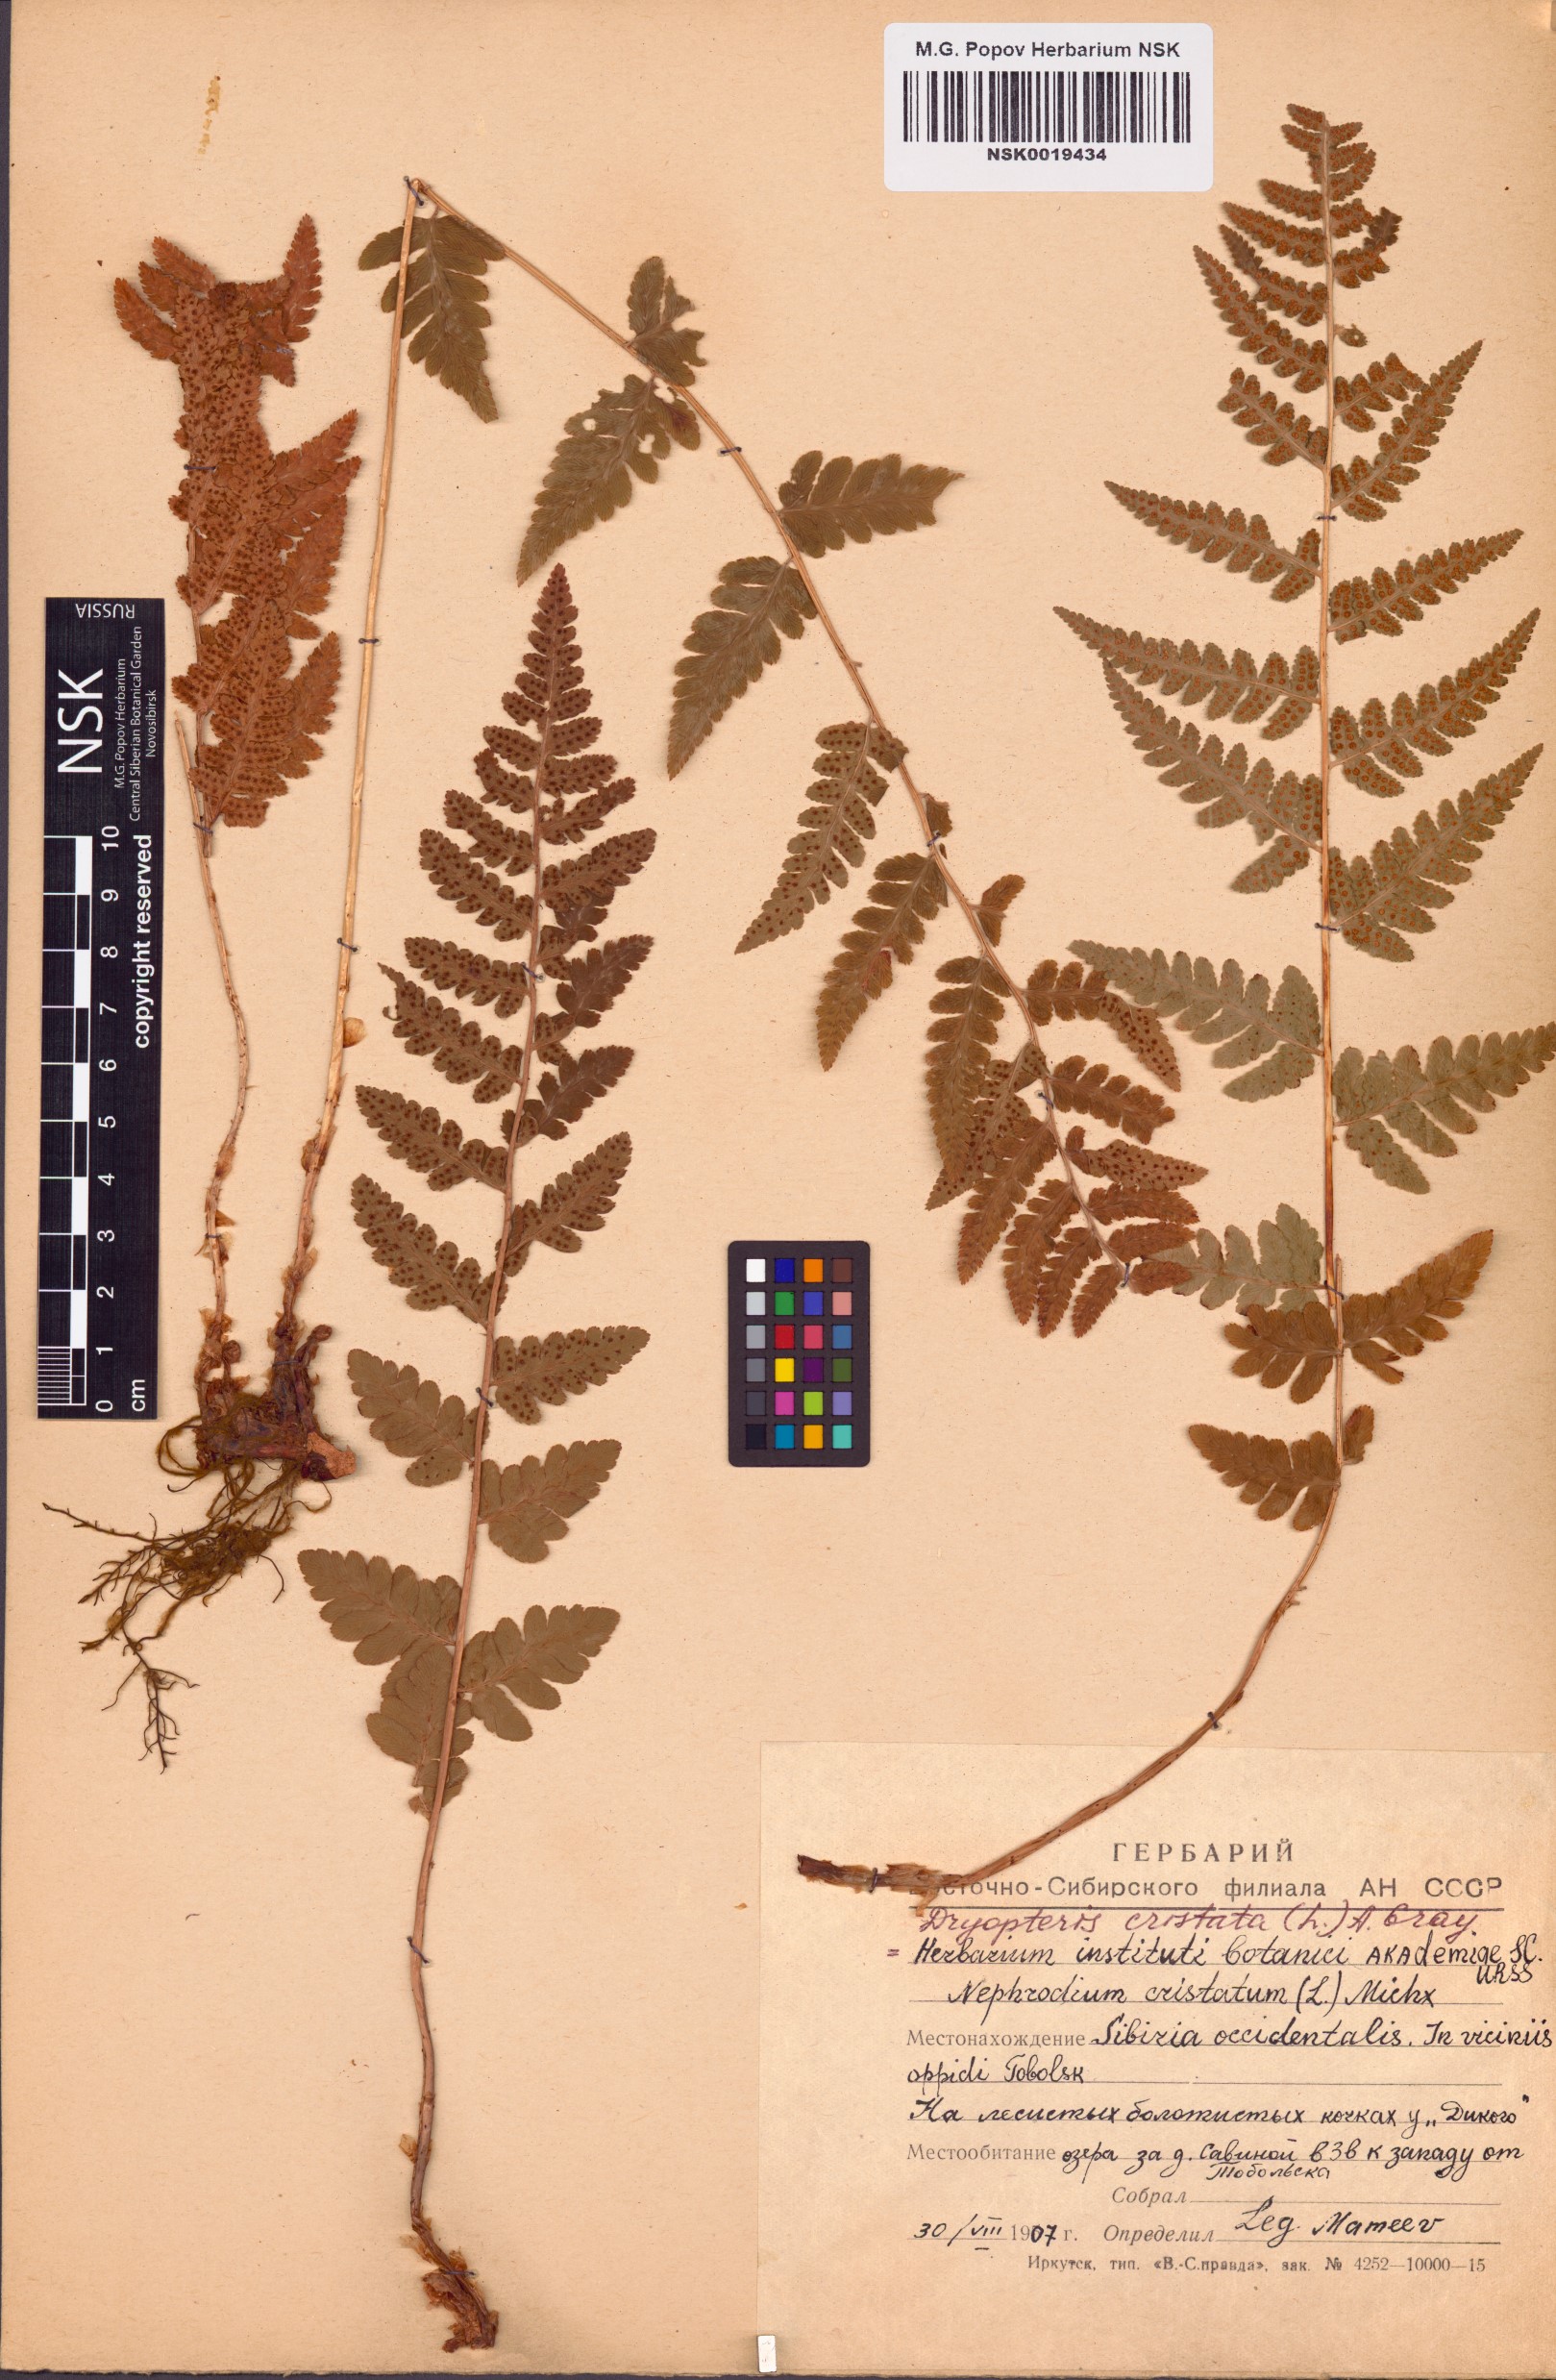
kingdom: Plantae
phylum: Tracheophyta
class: Polypodiopsida
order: Polypodiales
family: Dryopteridaceae
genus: Dryopteris
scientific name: Dryopteris cristata
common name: Crested wood fern
